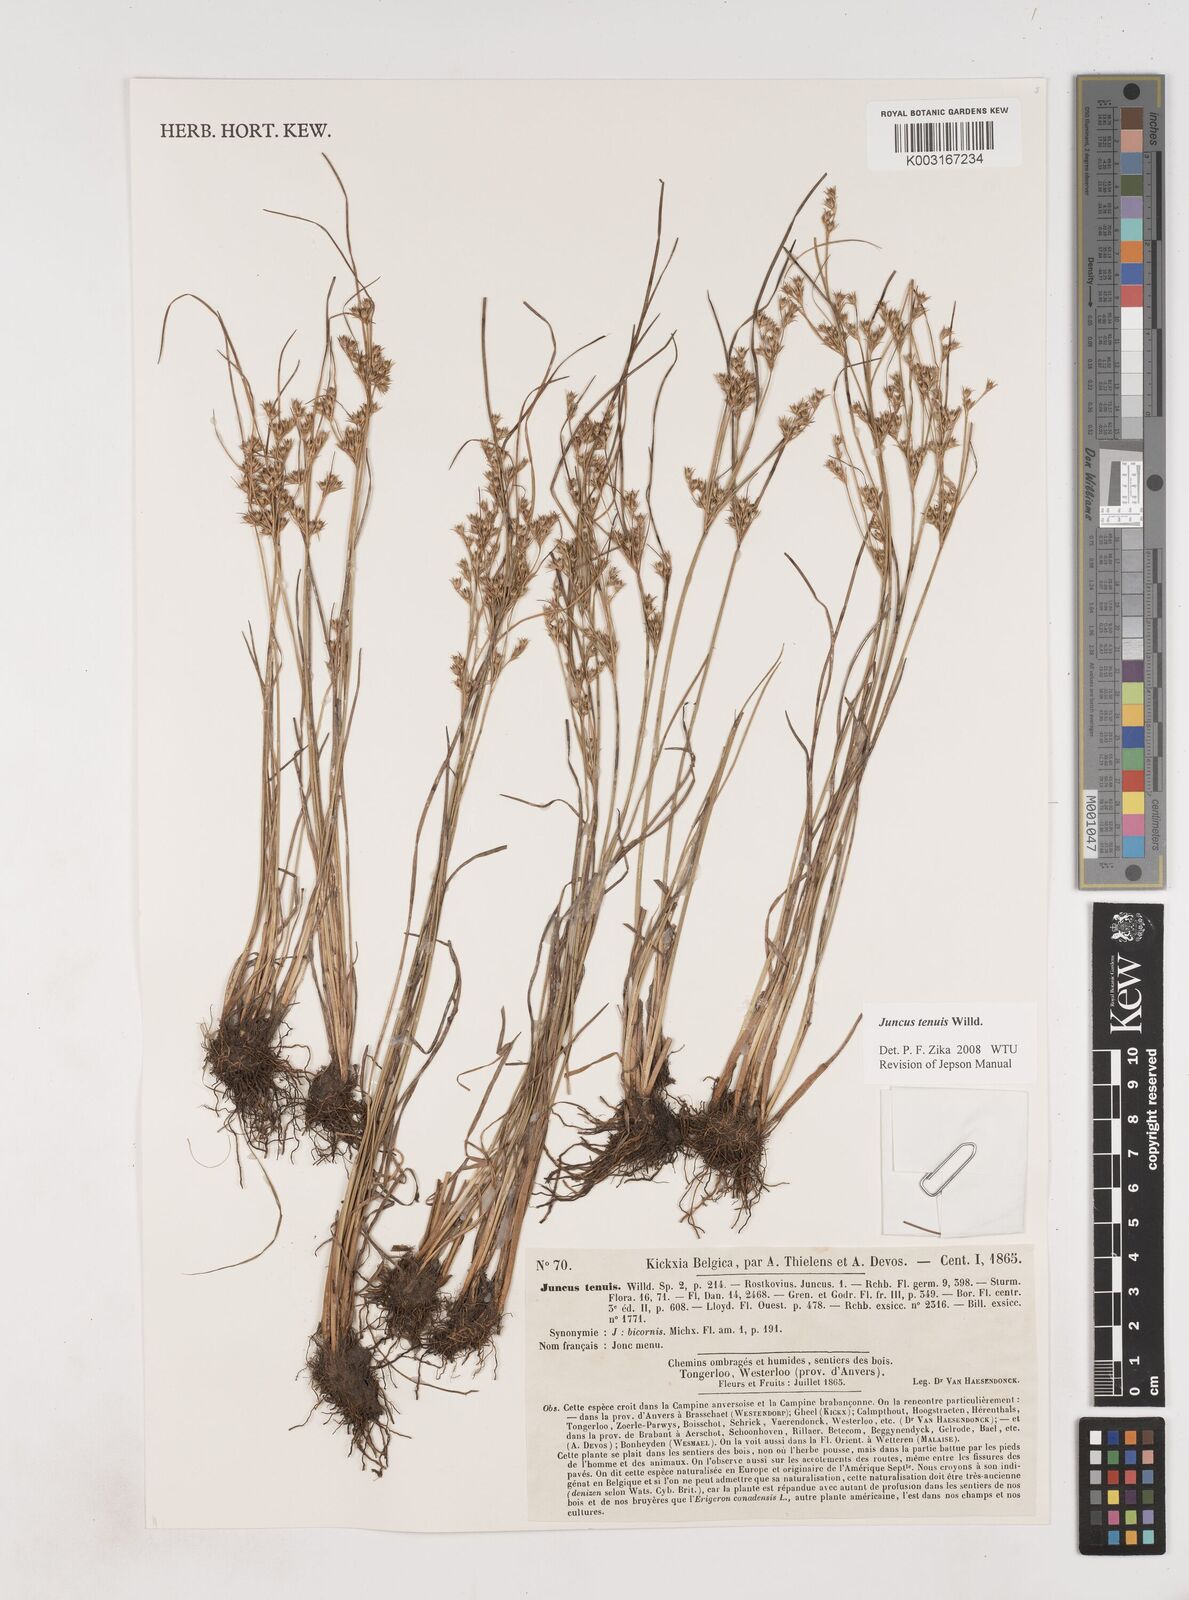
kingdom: Plantae
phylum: Tracheophyta
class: Liliopsida
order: Poales
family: Juncaceae
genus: Juncus
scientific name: Juncus tenuis
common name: Slender rush
